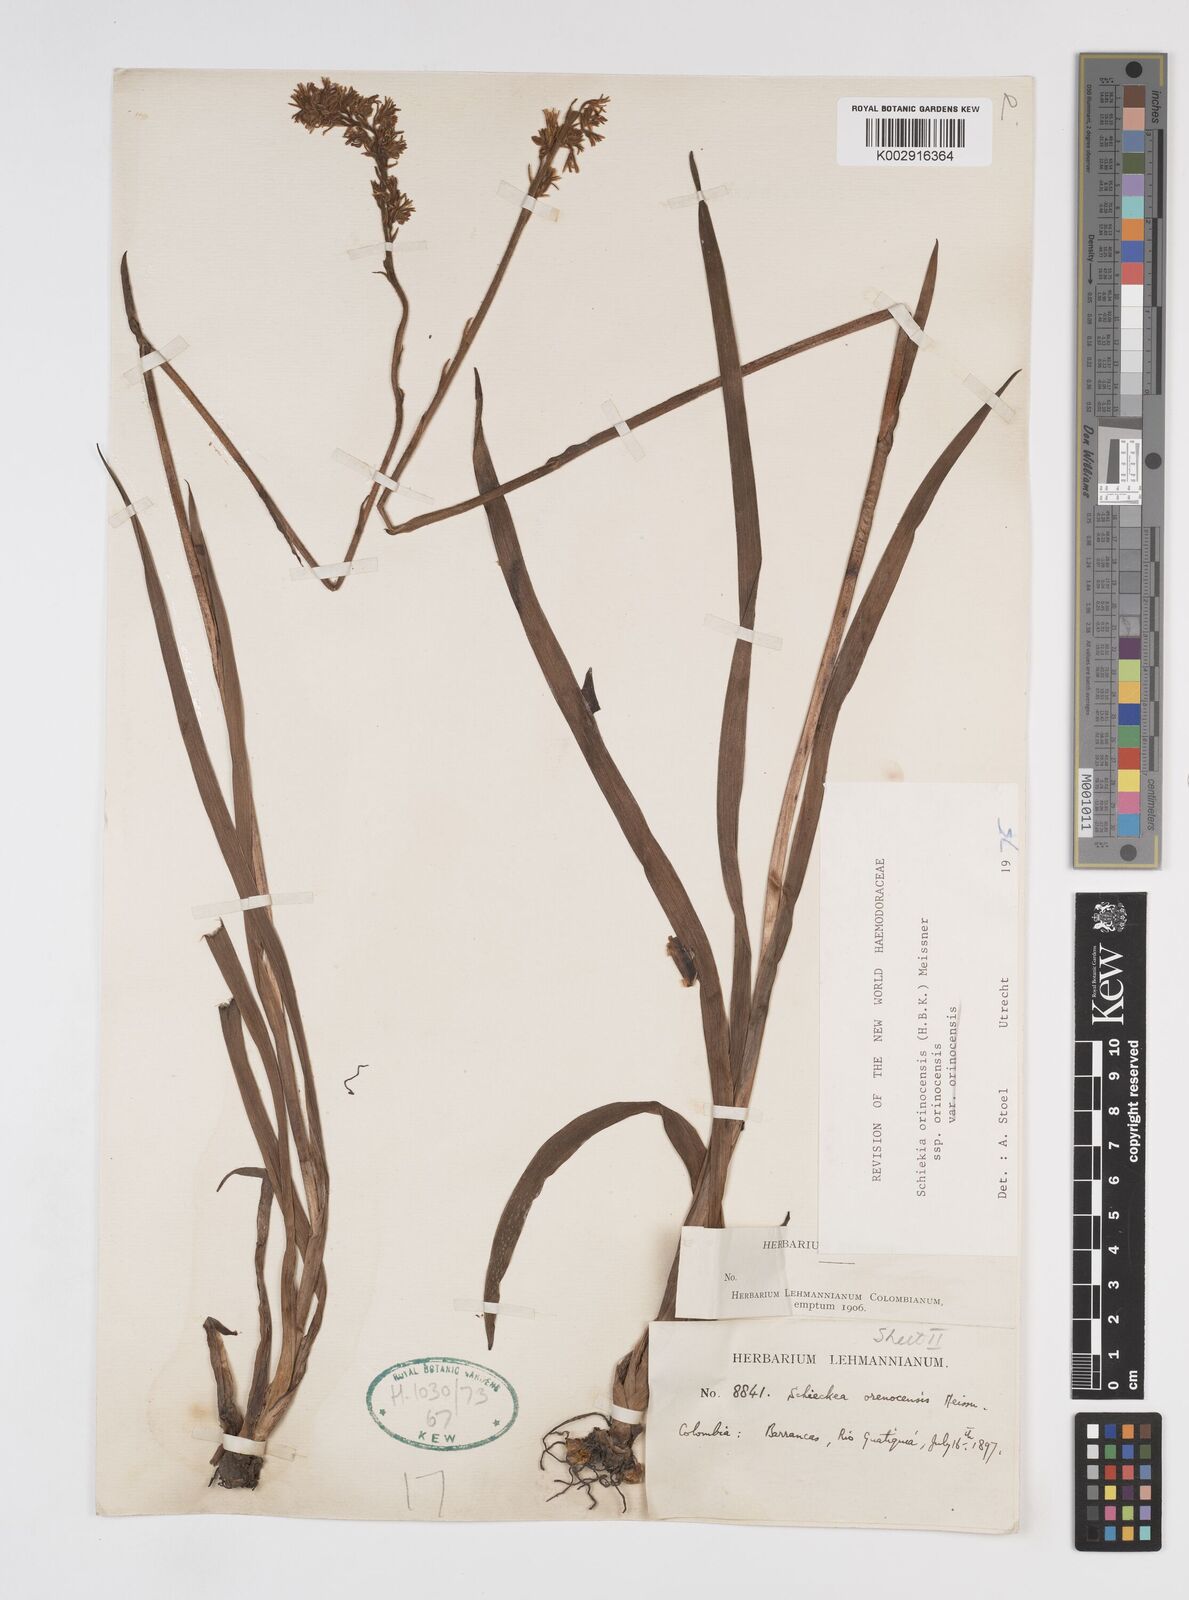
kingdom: Plantae
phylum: Tracheophyta
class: Liliopsida
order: Commelinales
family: Haemodoraceae
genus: Schiekia
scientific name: Schiekia orinocensis
